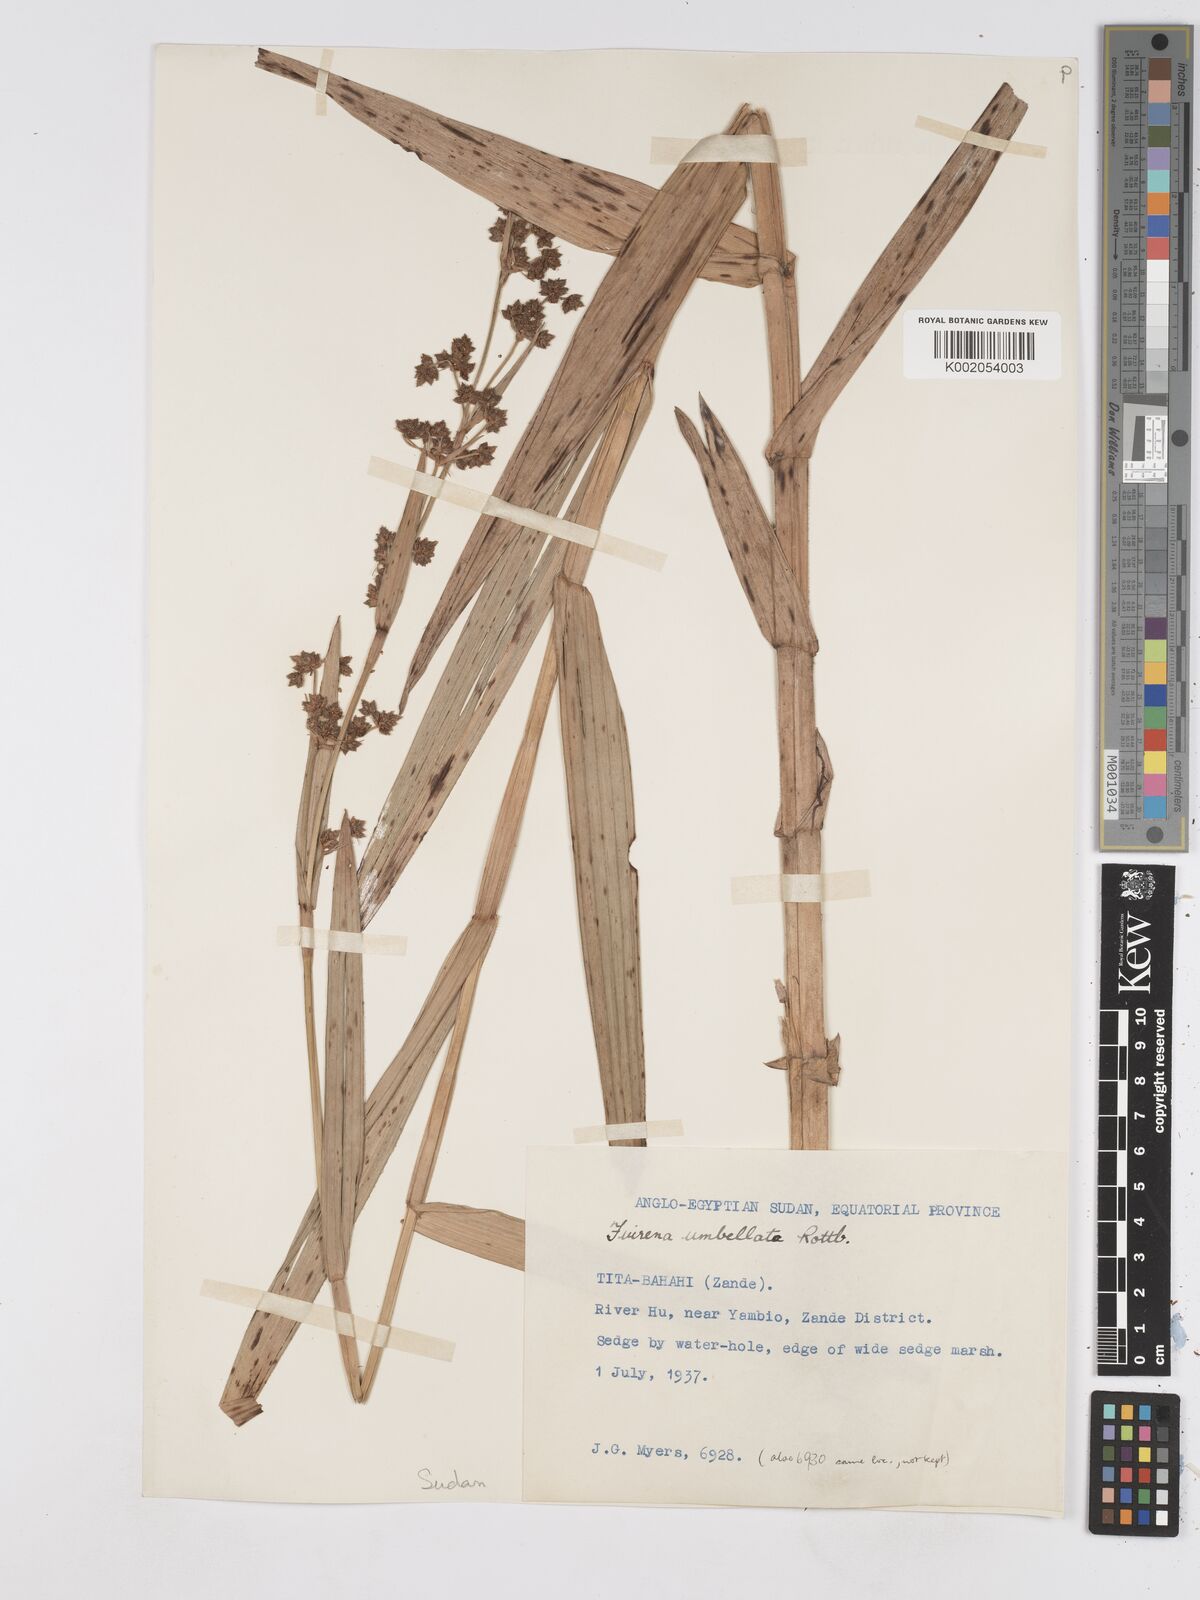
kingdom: Plantae
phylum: Tracheophyta
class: Liliopsida
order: Poales
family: Cyperaceae
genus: Fuirena
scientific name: Fuirena umbellata
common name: Yefen
